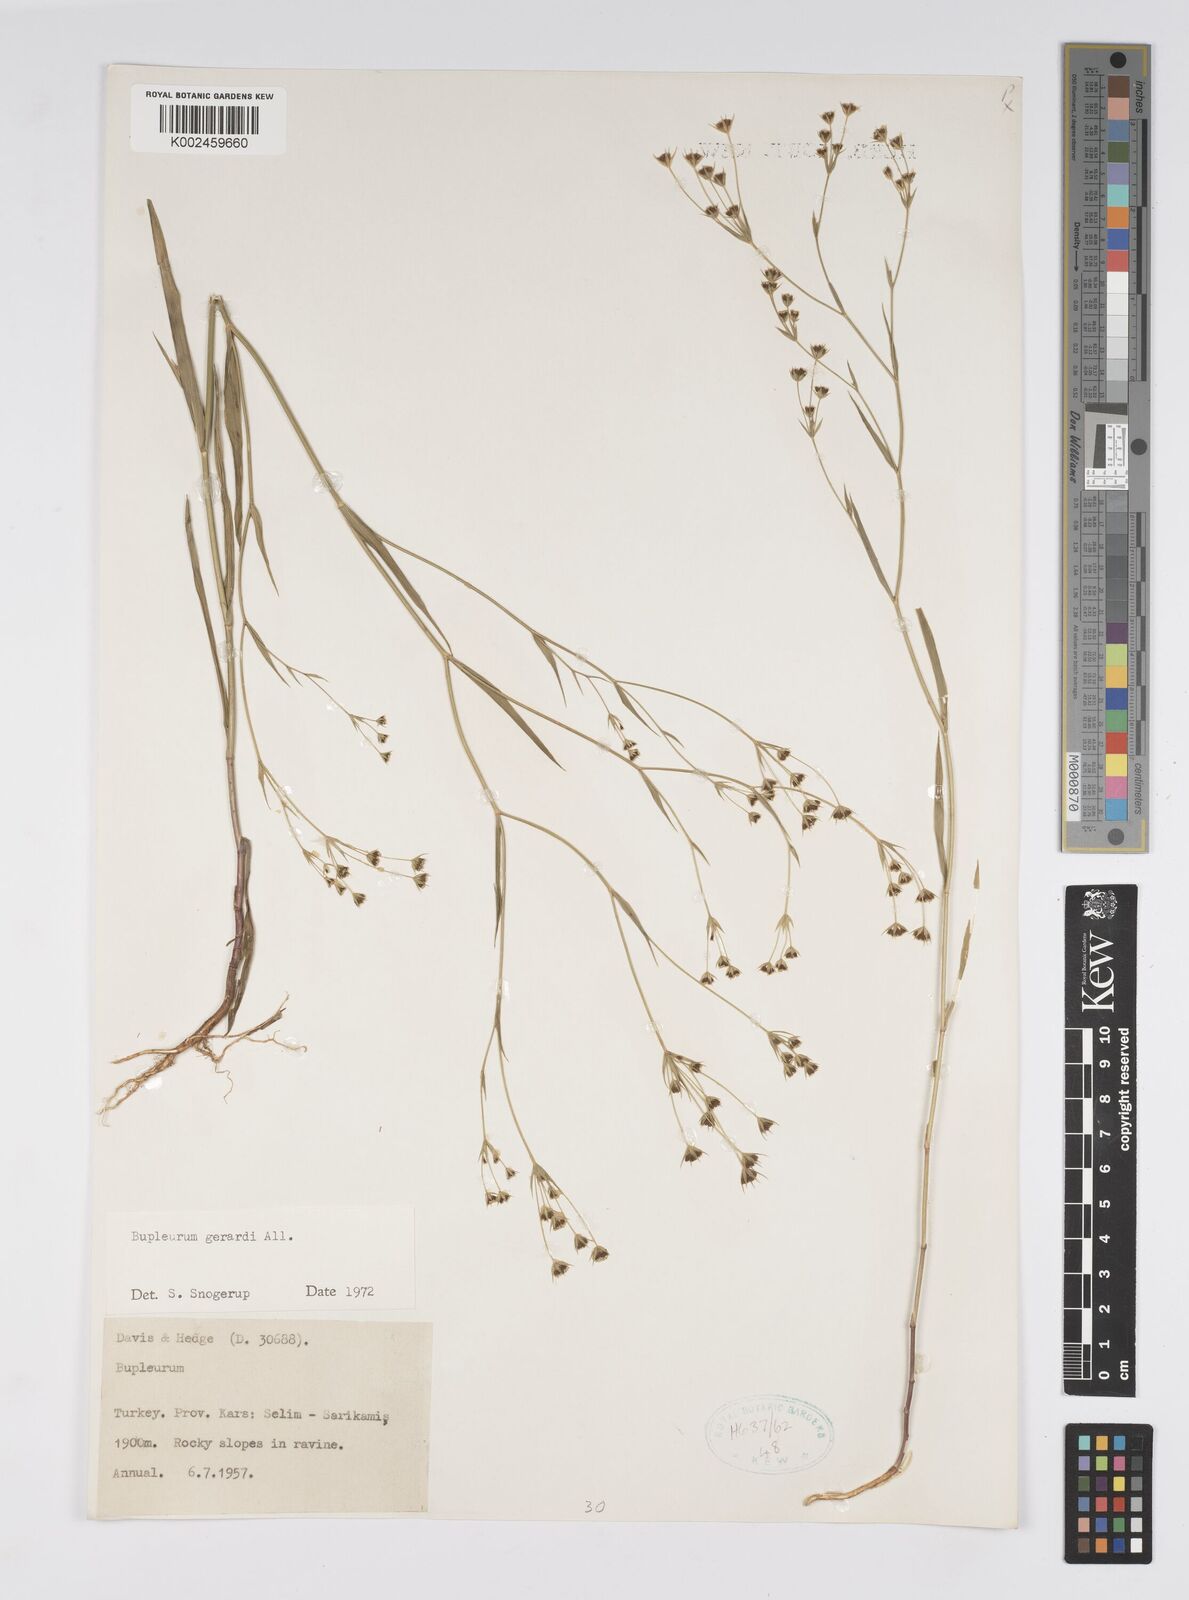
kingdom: Plantae
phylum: Tracheophyta
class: Magnoliopsida
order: Apiales
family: Apiaceae
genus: Bupleurum
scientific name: Bupleurum gerardi
